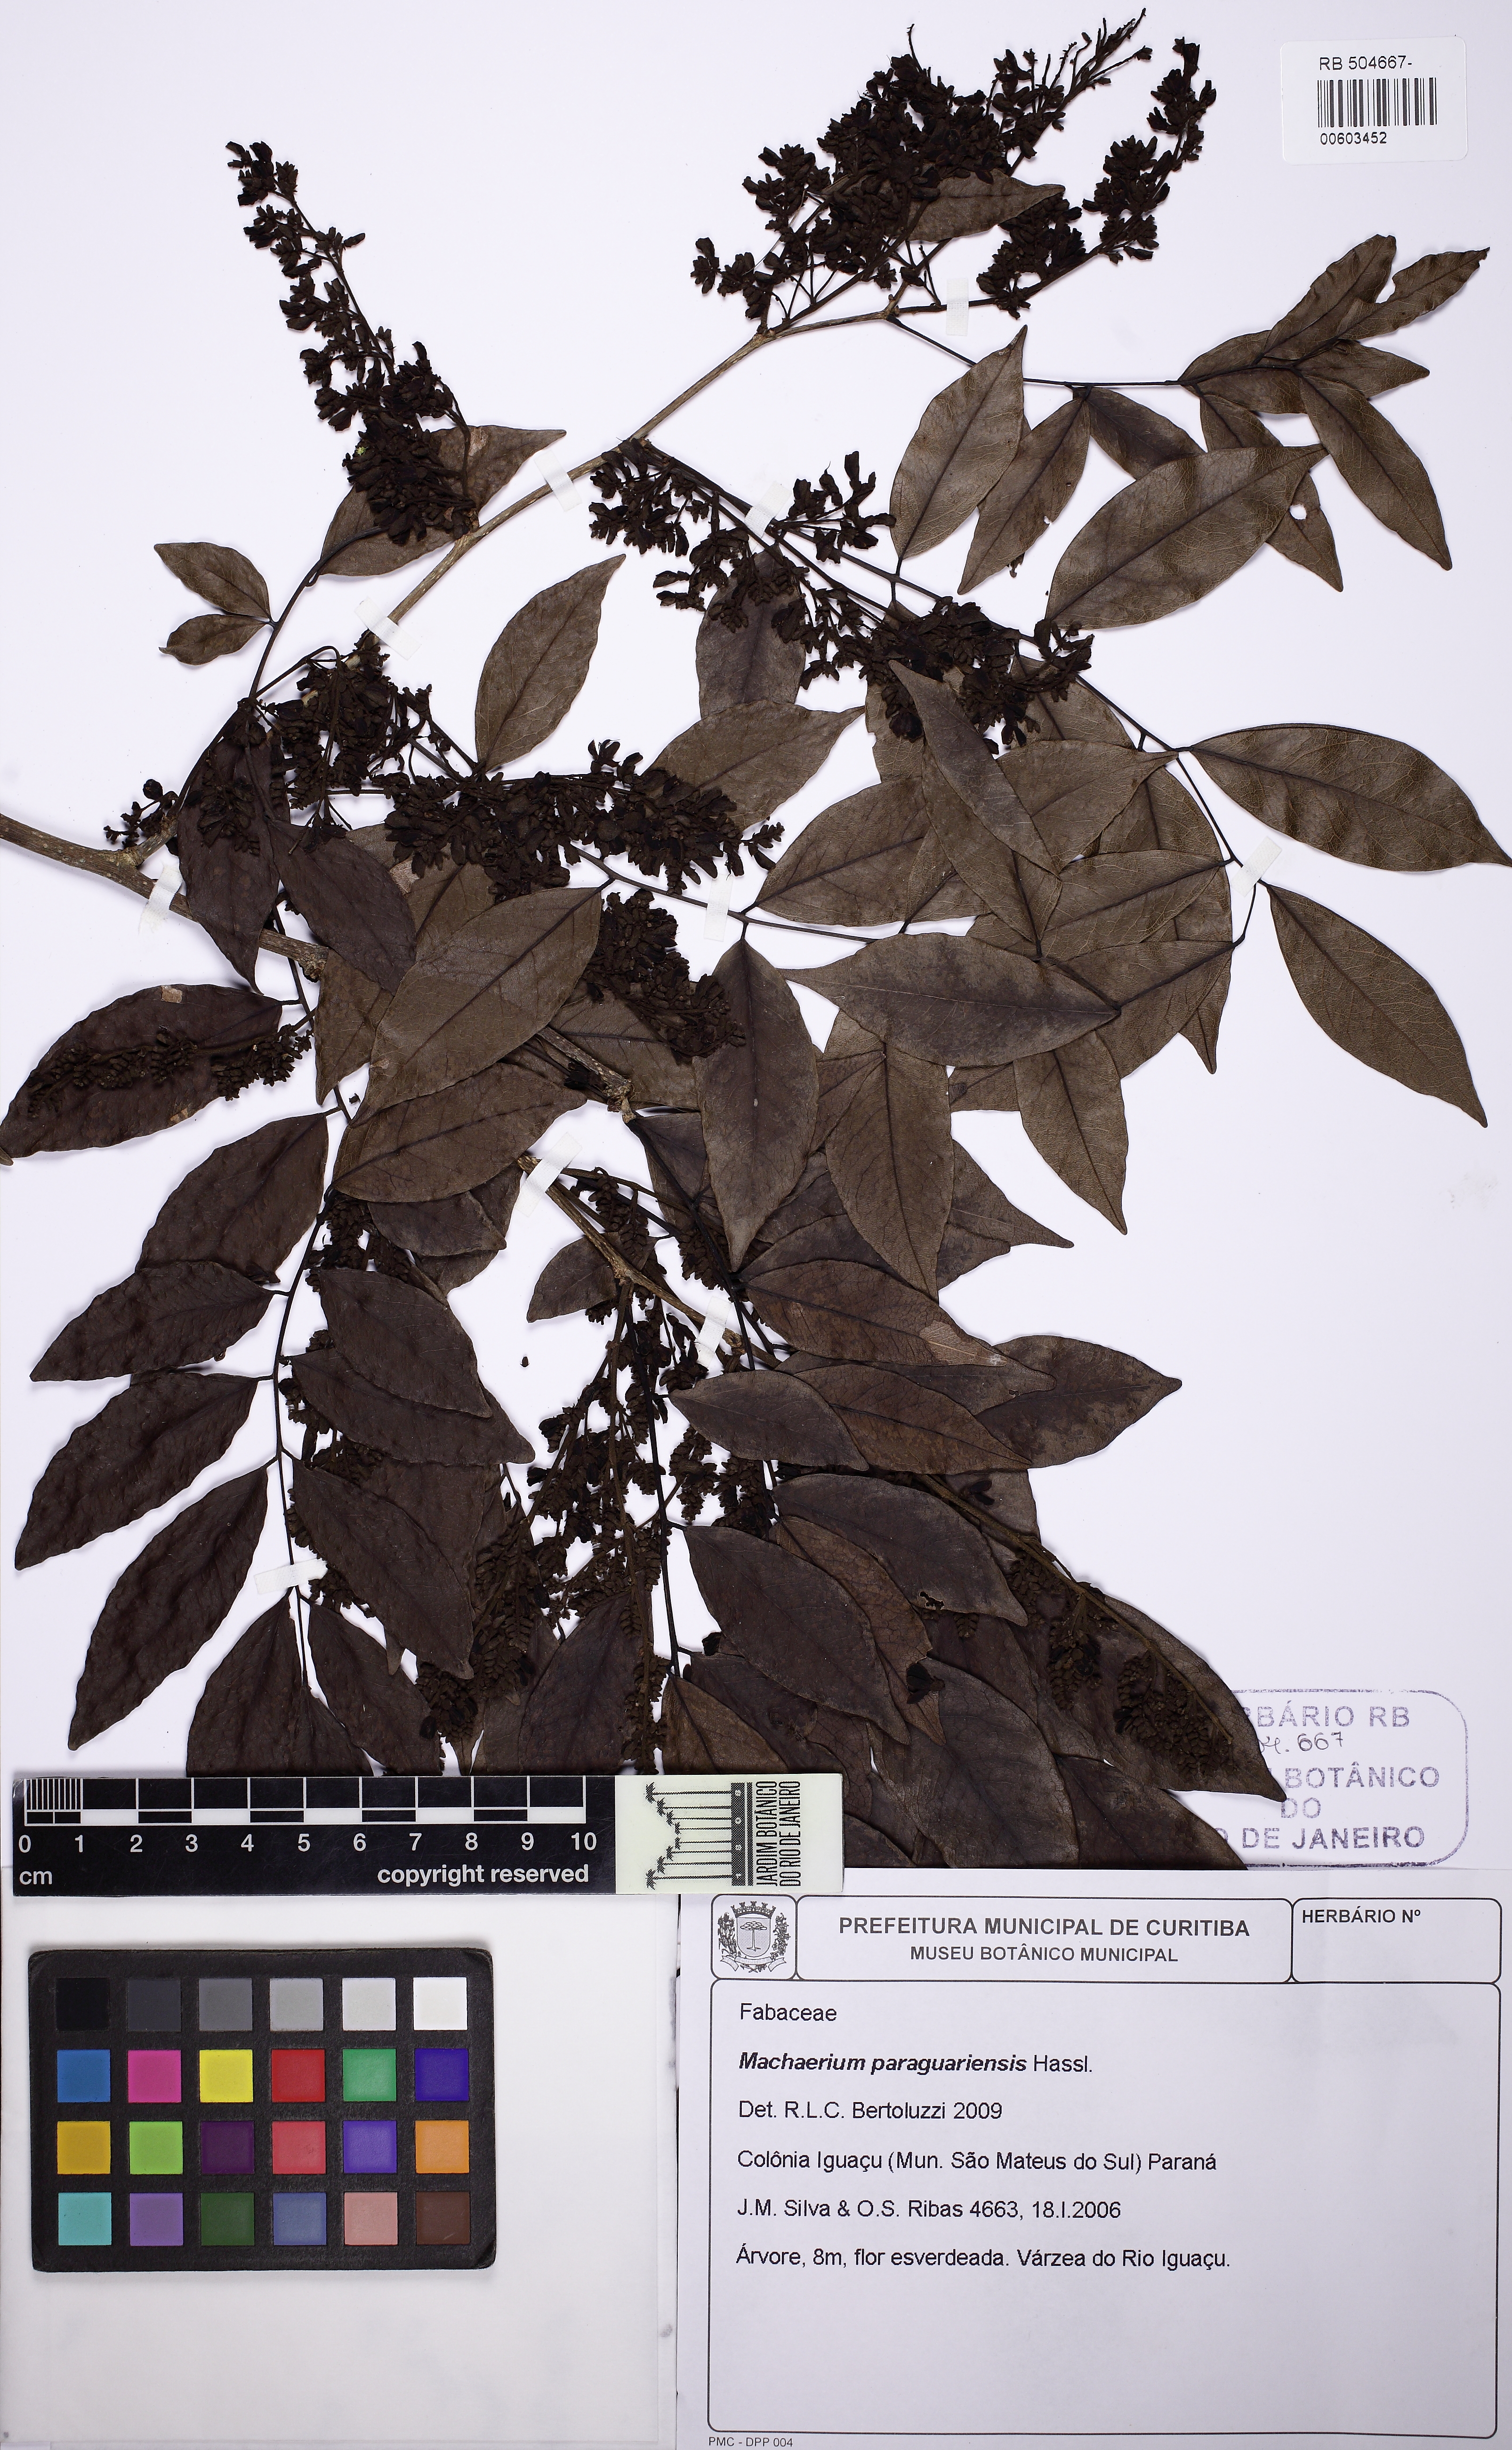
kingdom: Plantae
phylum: Tracheophyta
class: Magnoliopsida
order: Fabales
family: Fabaceae
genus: Machaerium
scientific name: Machaerium oblongifolium
